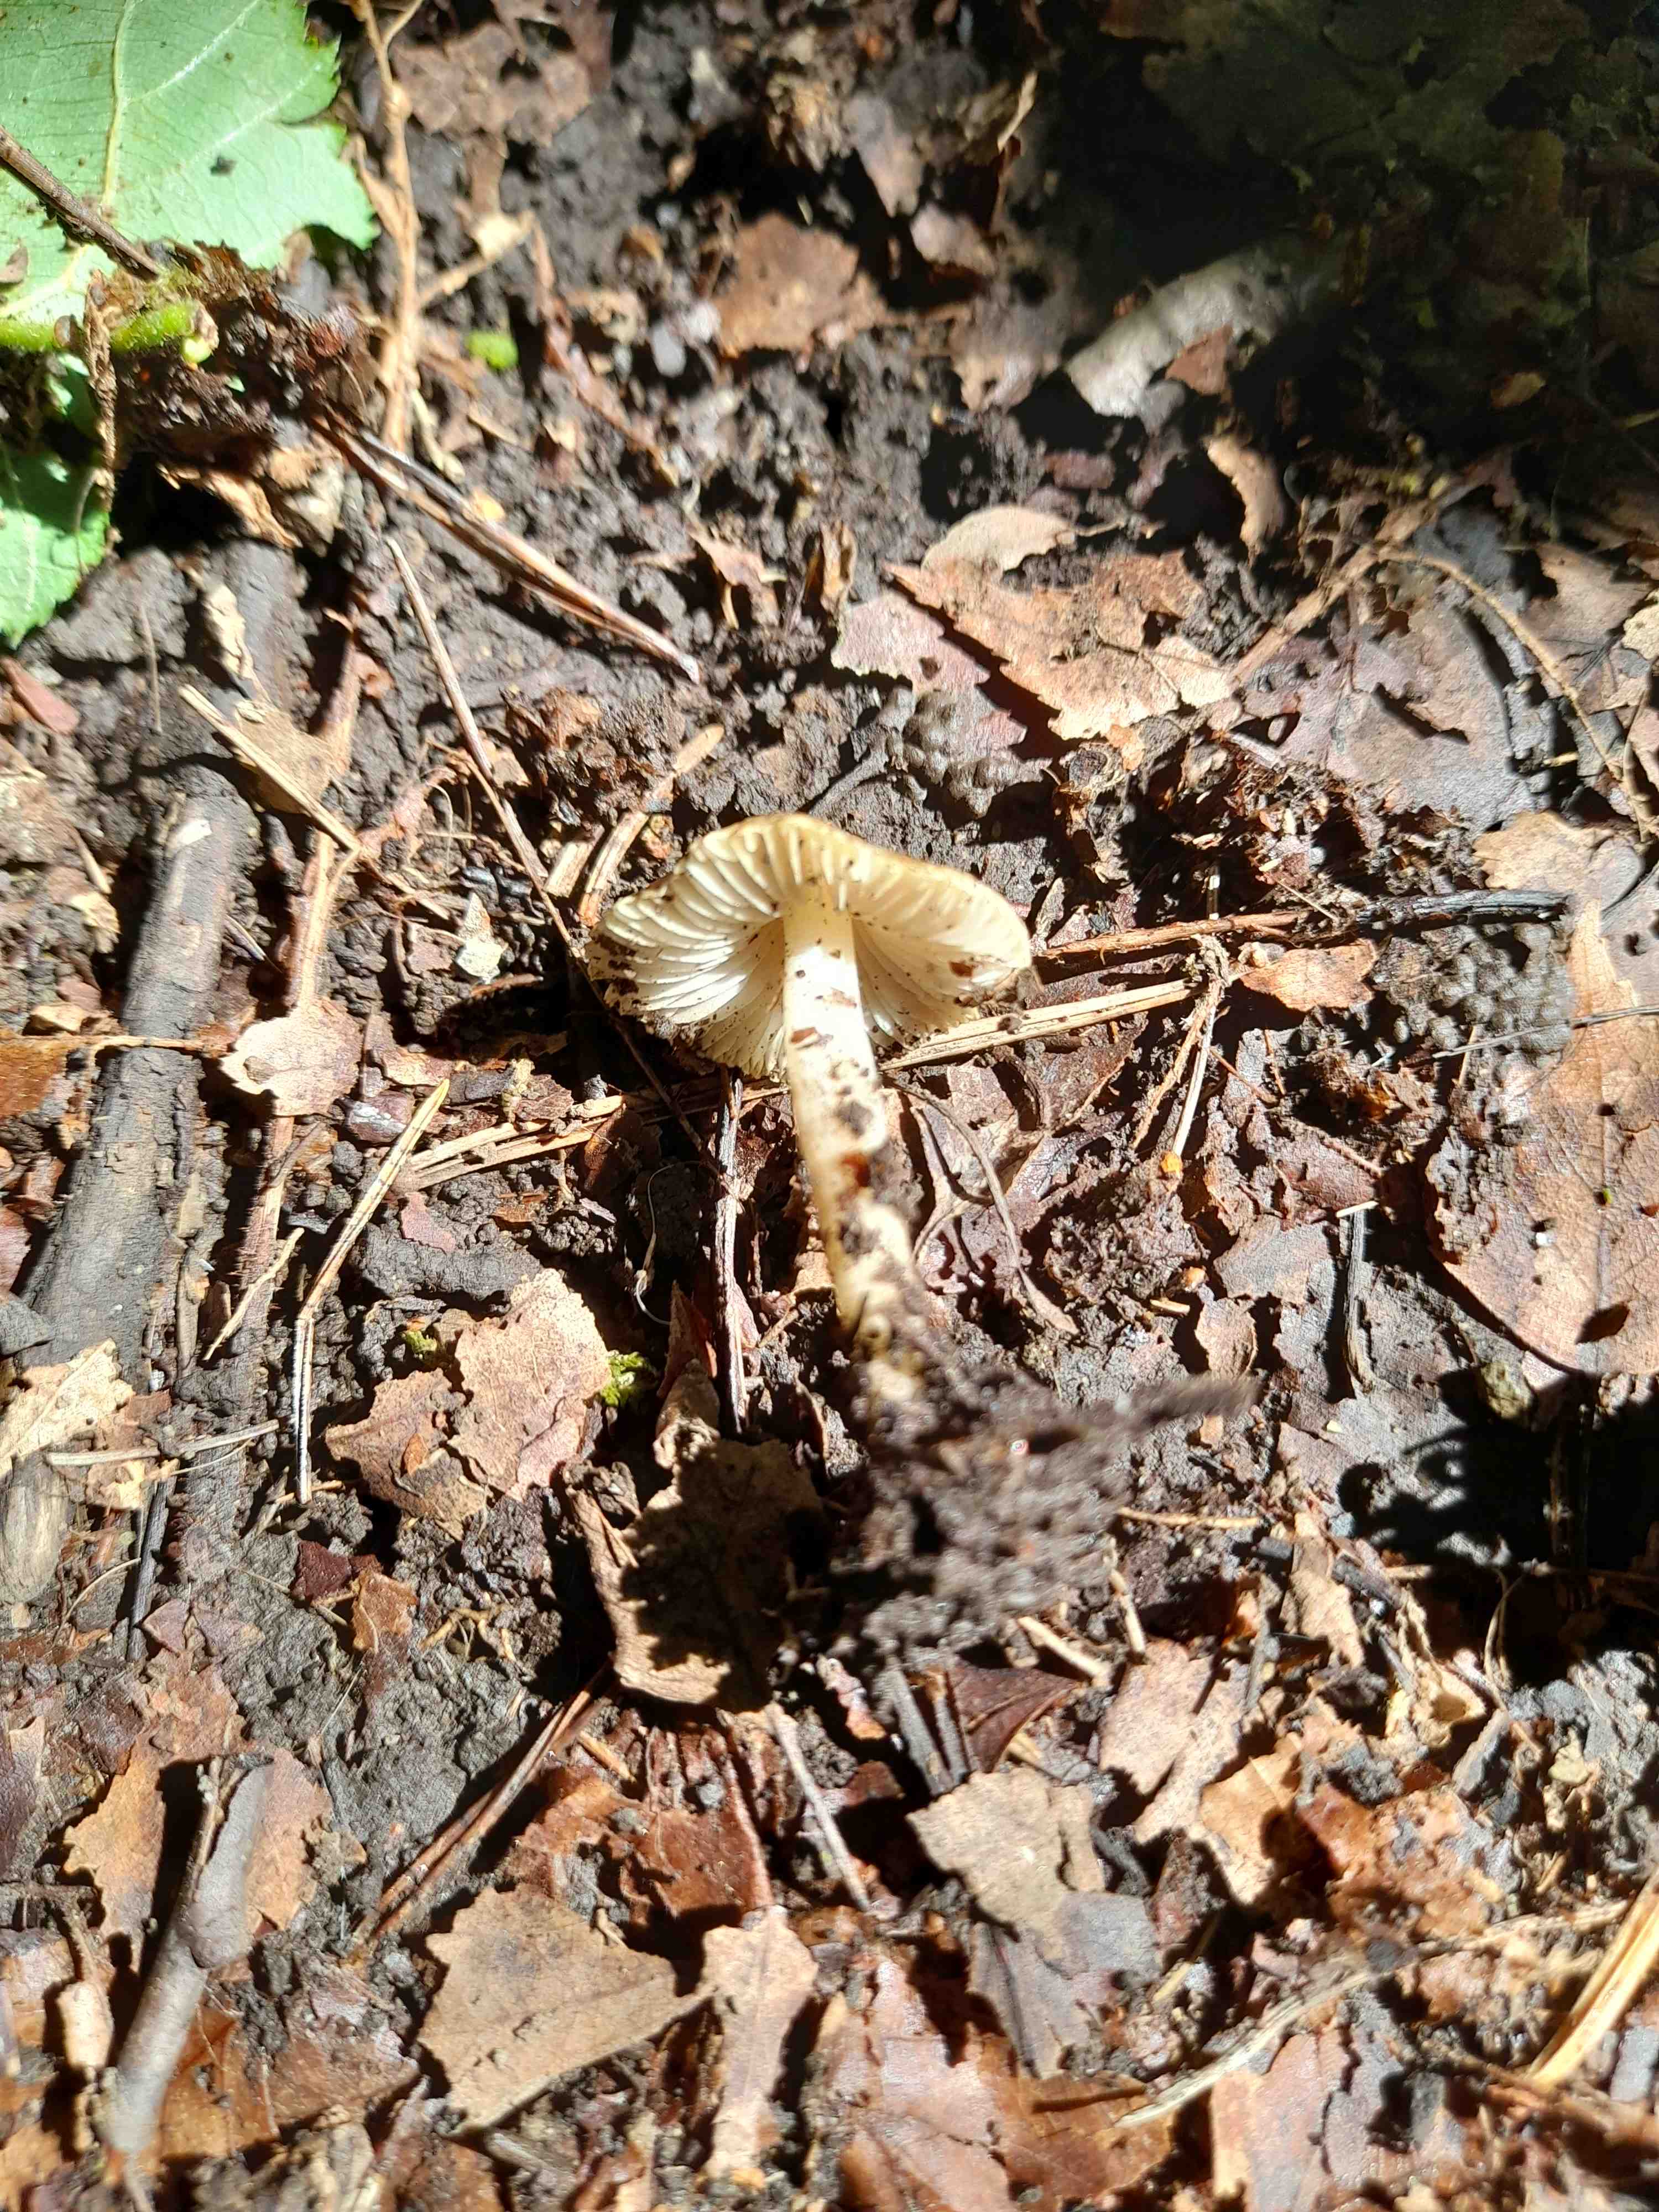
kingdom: Fungi
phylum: Basidiomycota
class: Agaricomycetes
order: Agaricales
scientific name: Agaricales
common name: champignonordenen
